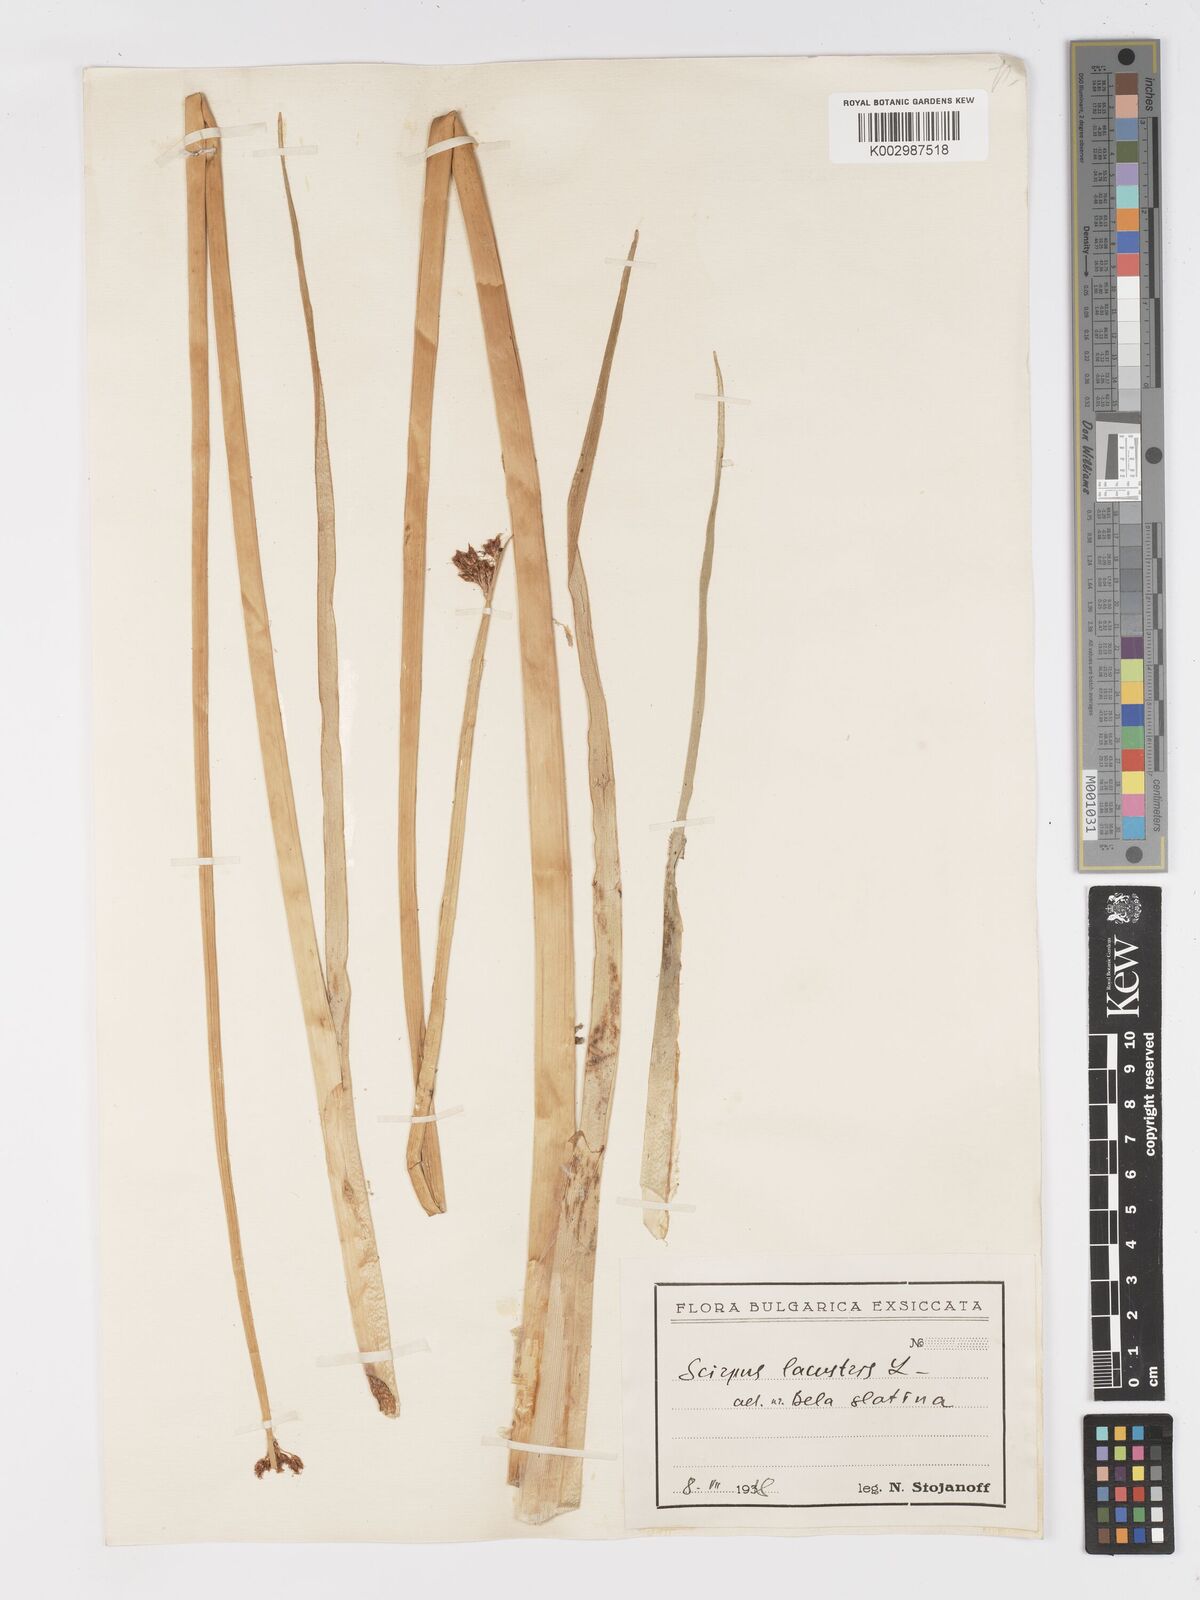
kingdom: Plantae
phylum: Tracheophyta
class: Liliopsida
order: Poales
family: Cyperaceae
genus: Schoenoplectus
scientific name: Schoenoplectus lacustris
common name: Common club-rush
